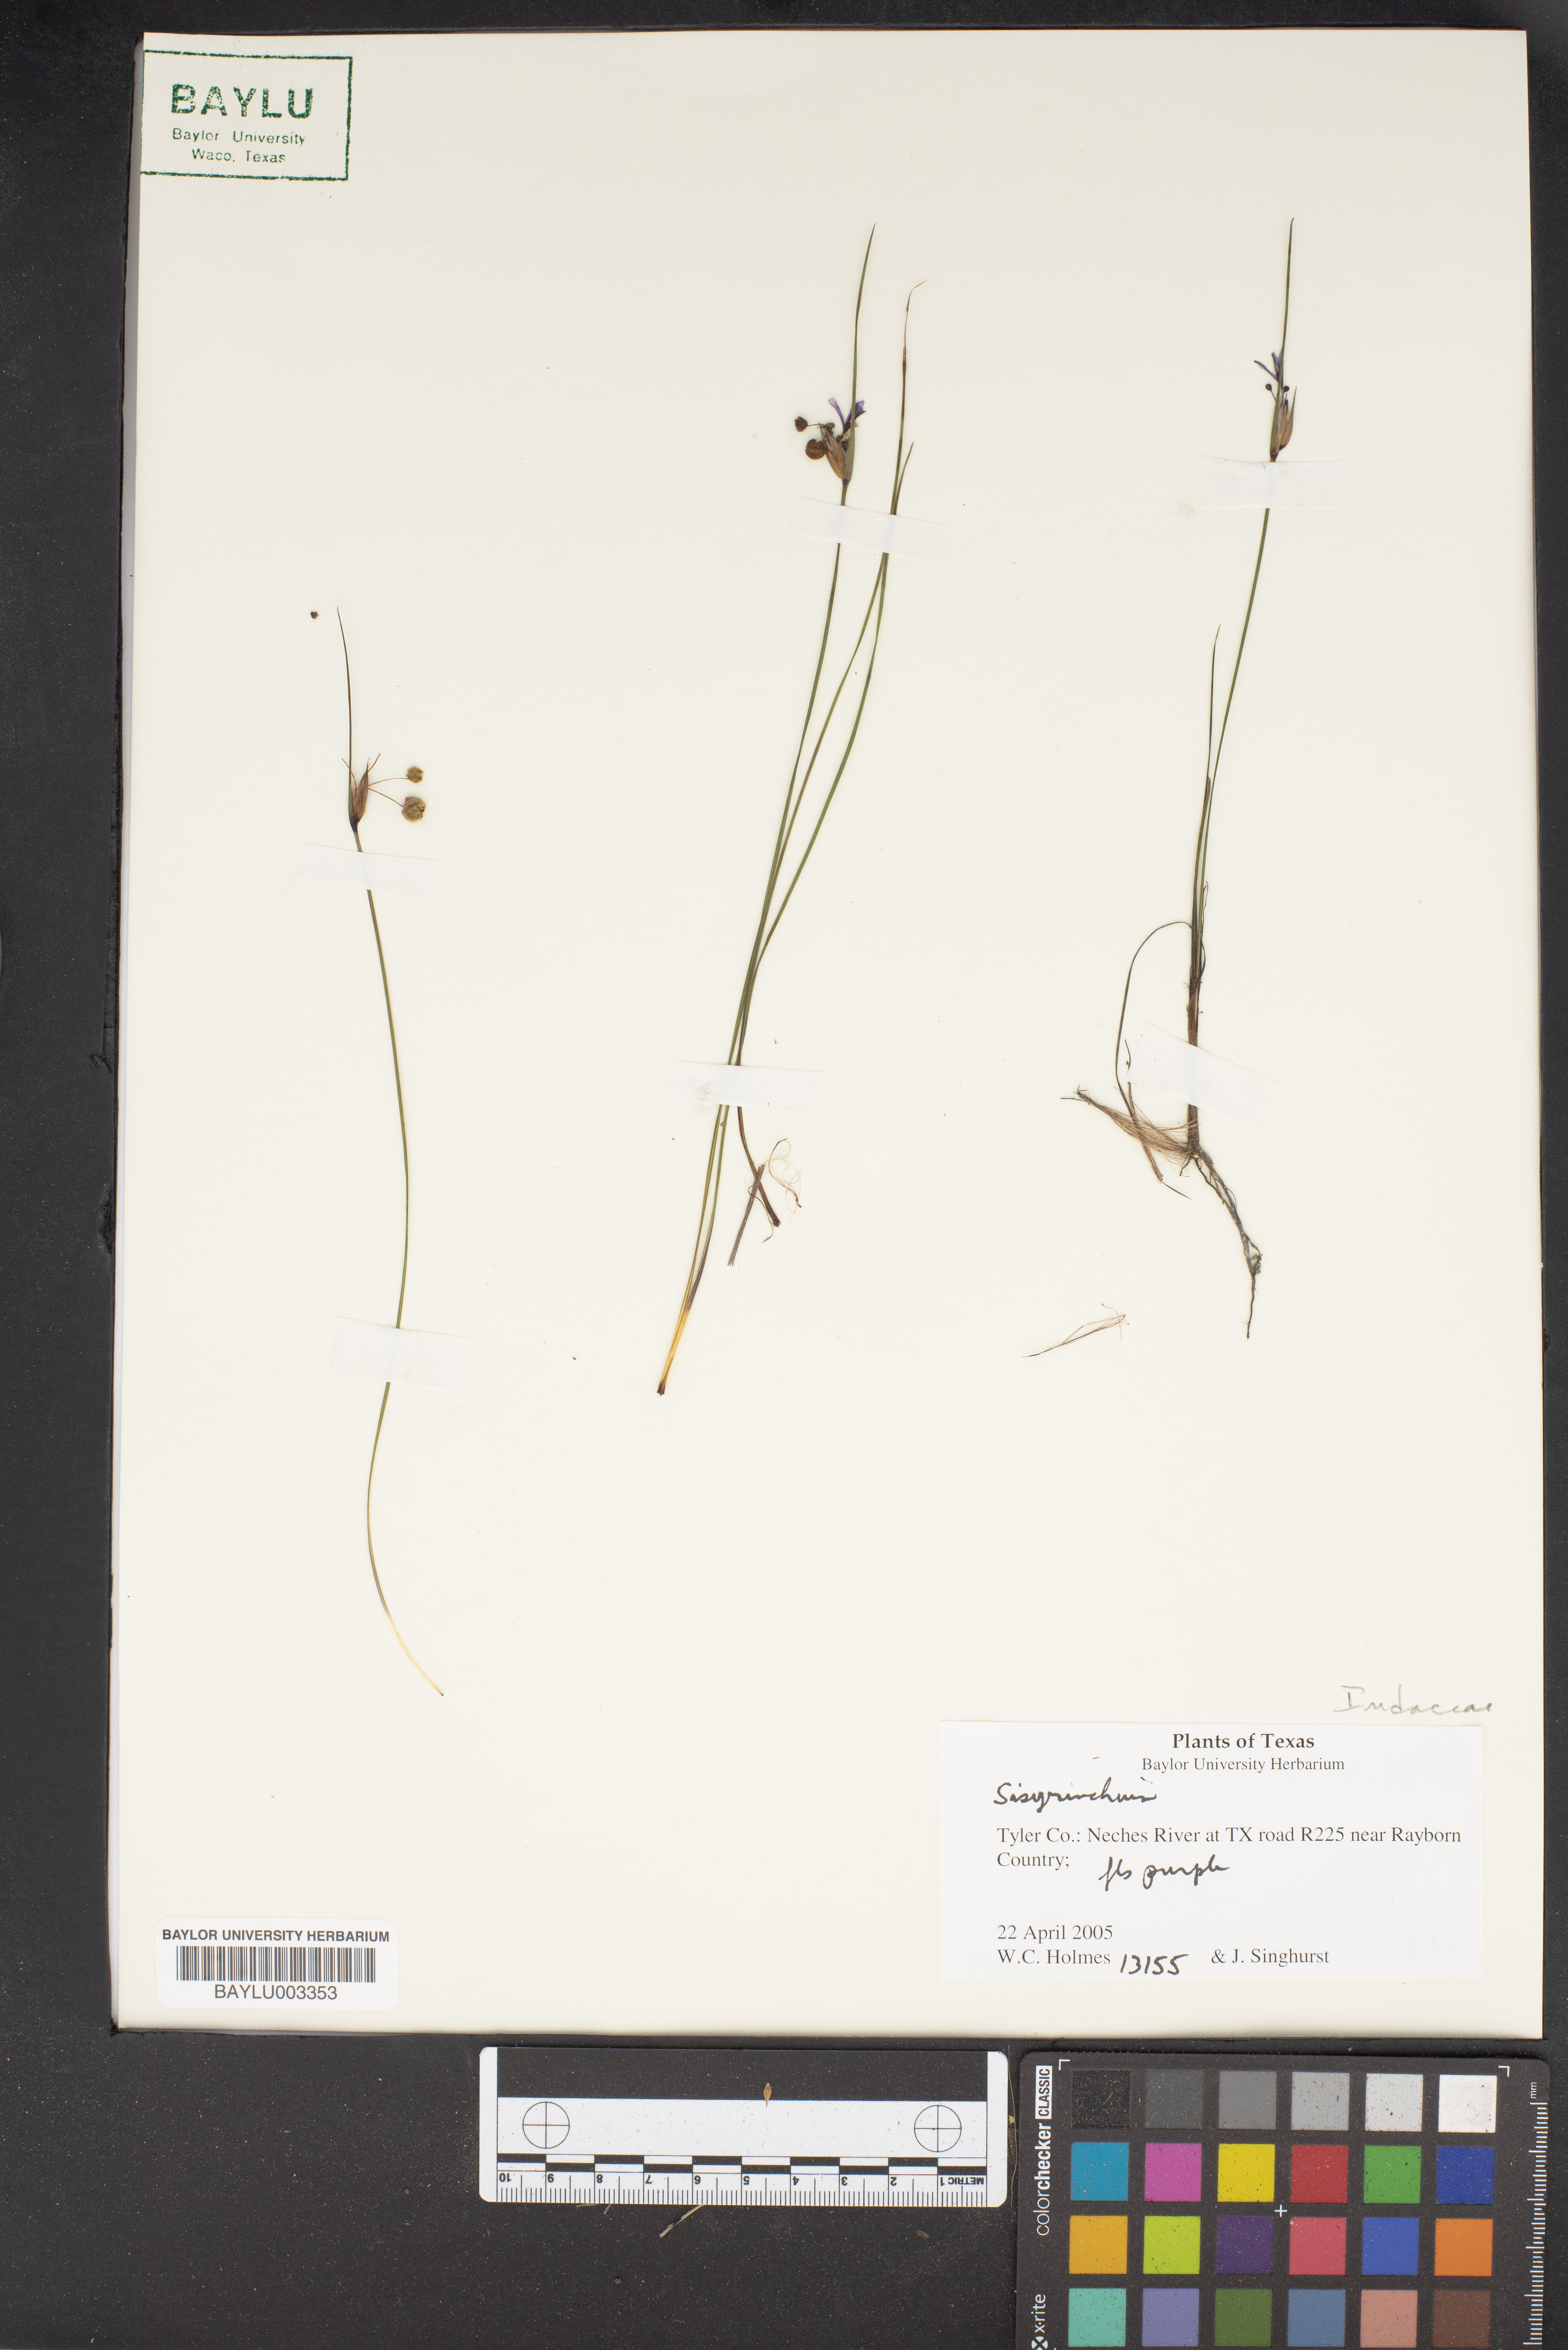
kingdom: Plantae
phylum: Tracheophyta
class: Liliopsida
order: Asparagales
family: Iridaceae
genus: Sisyrinchium
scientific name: Sisyrinchium
